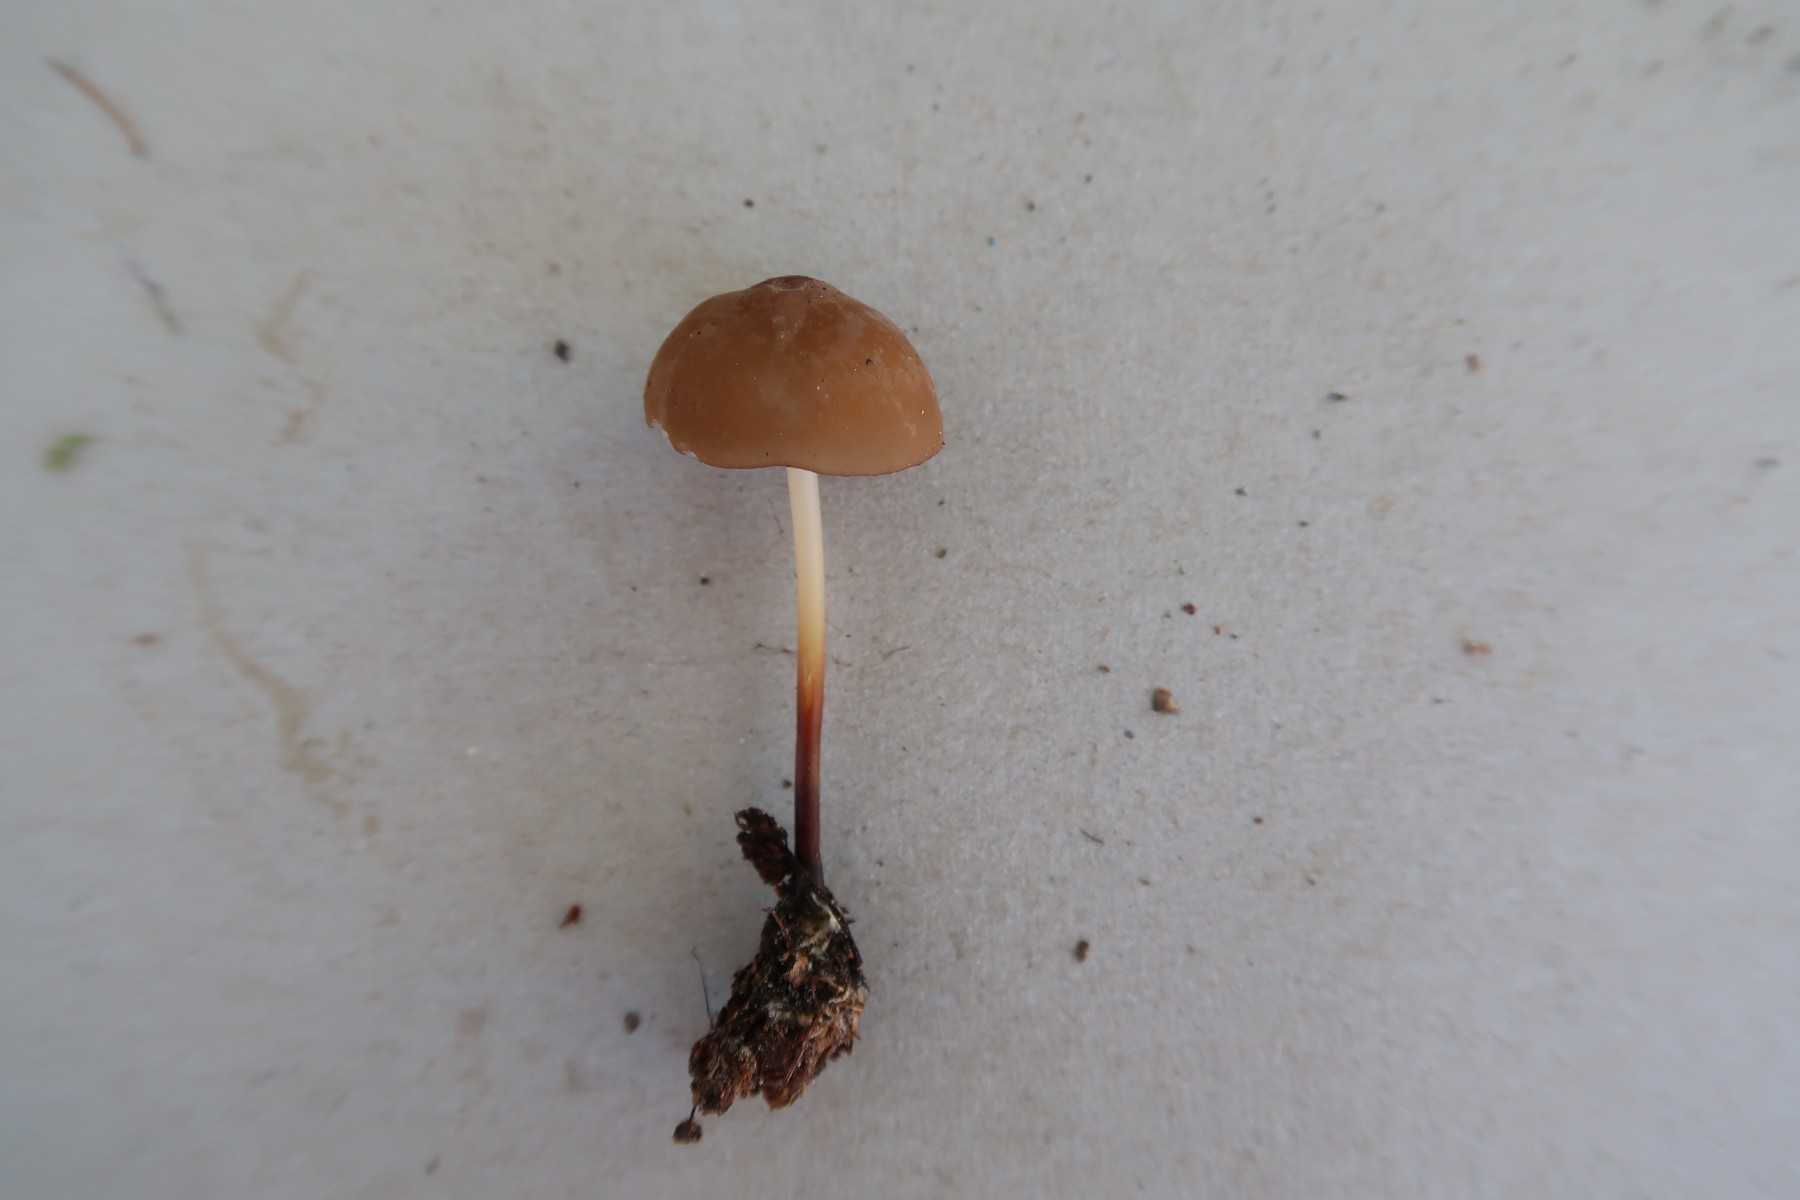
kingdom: Fungi
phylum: Basidiomycota
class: Agaricomycetes
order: Agaricales
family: Marasmiaceae
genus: Marasmius
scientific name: Marasmius cohaerens
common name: hornstokket bruskhat
